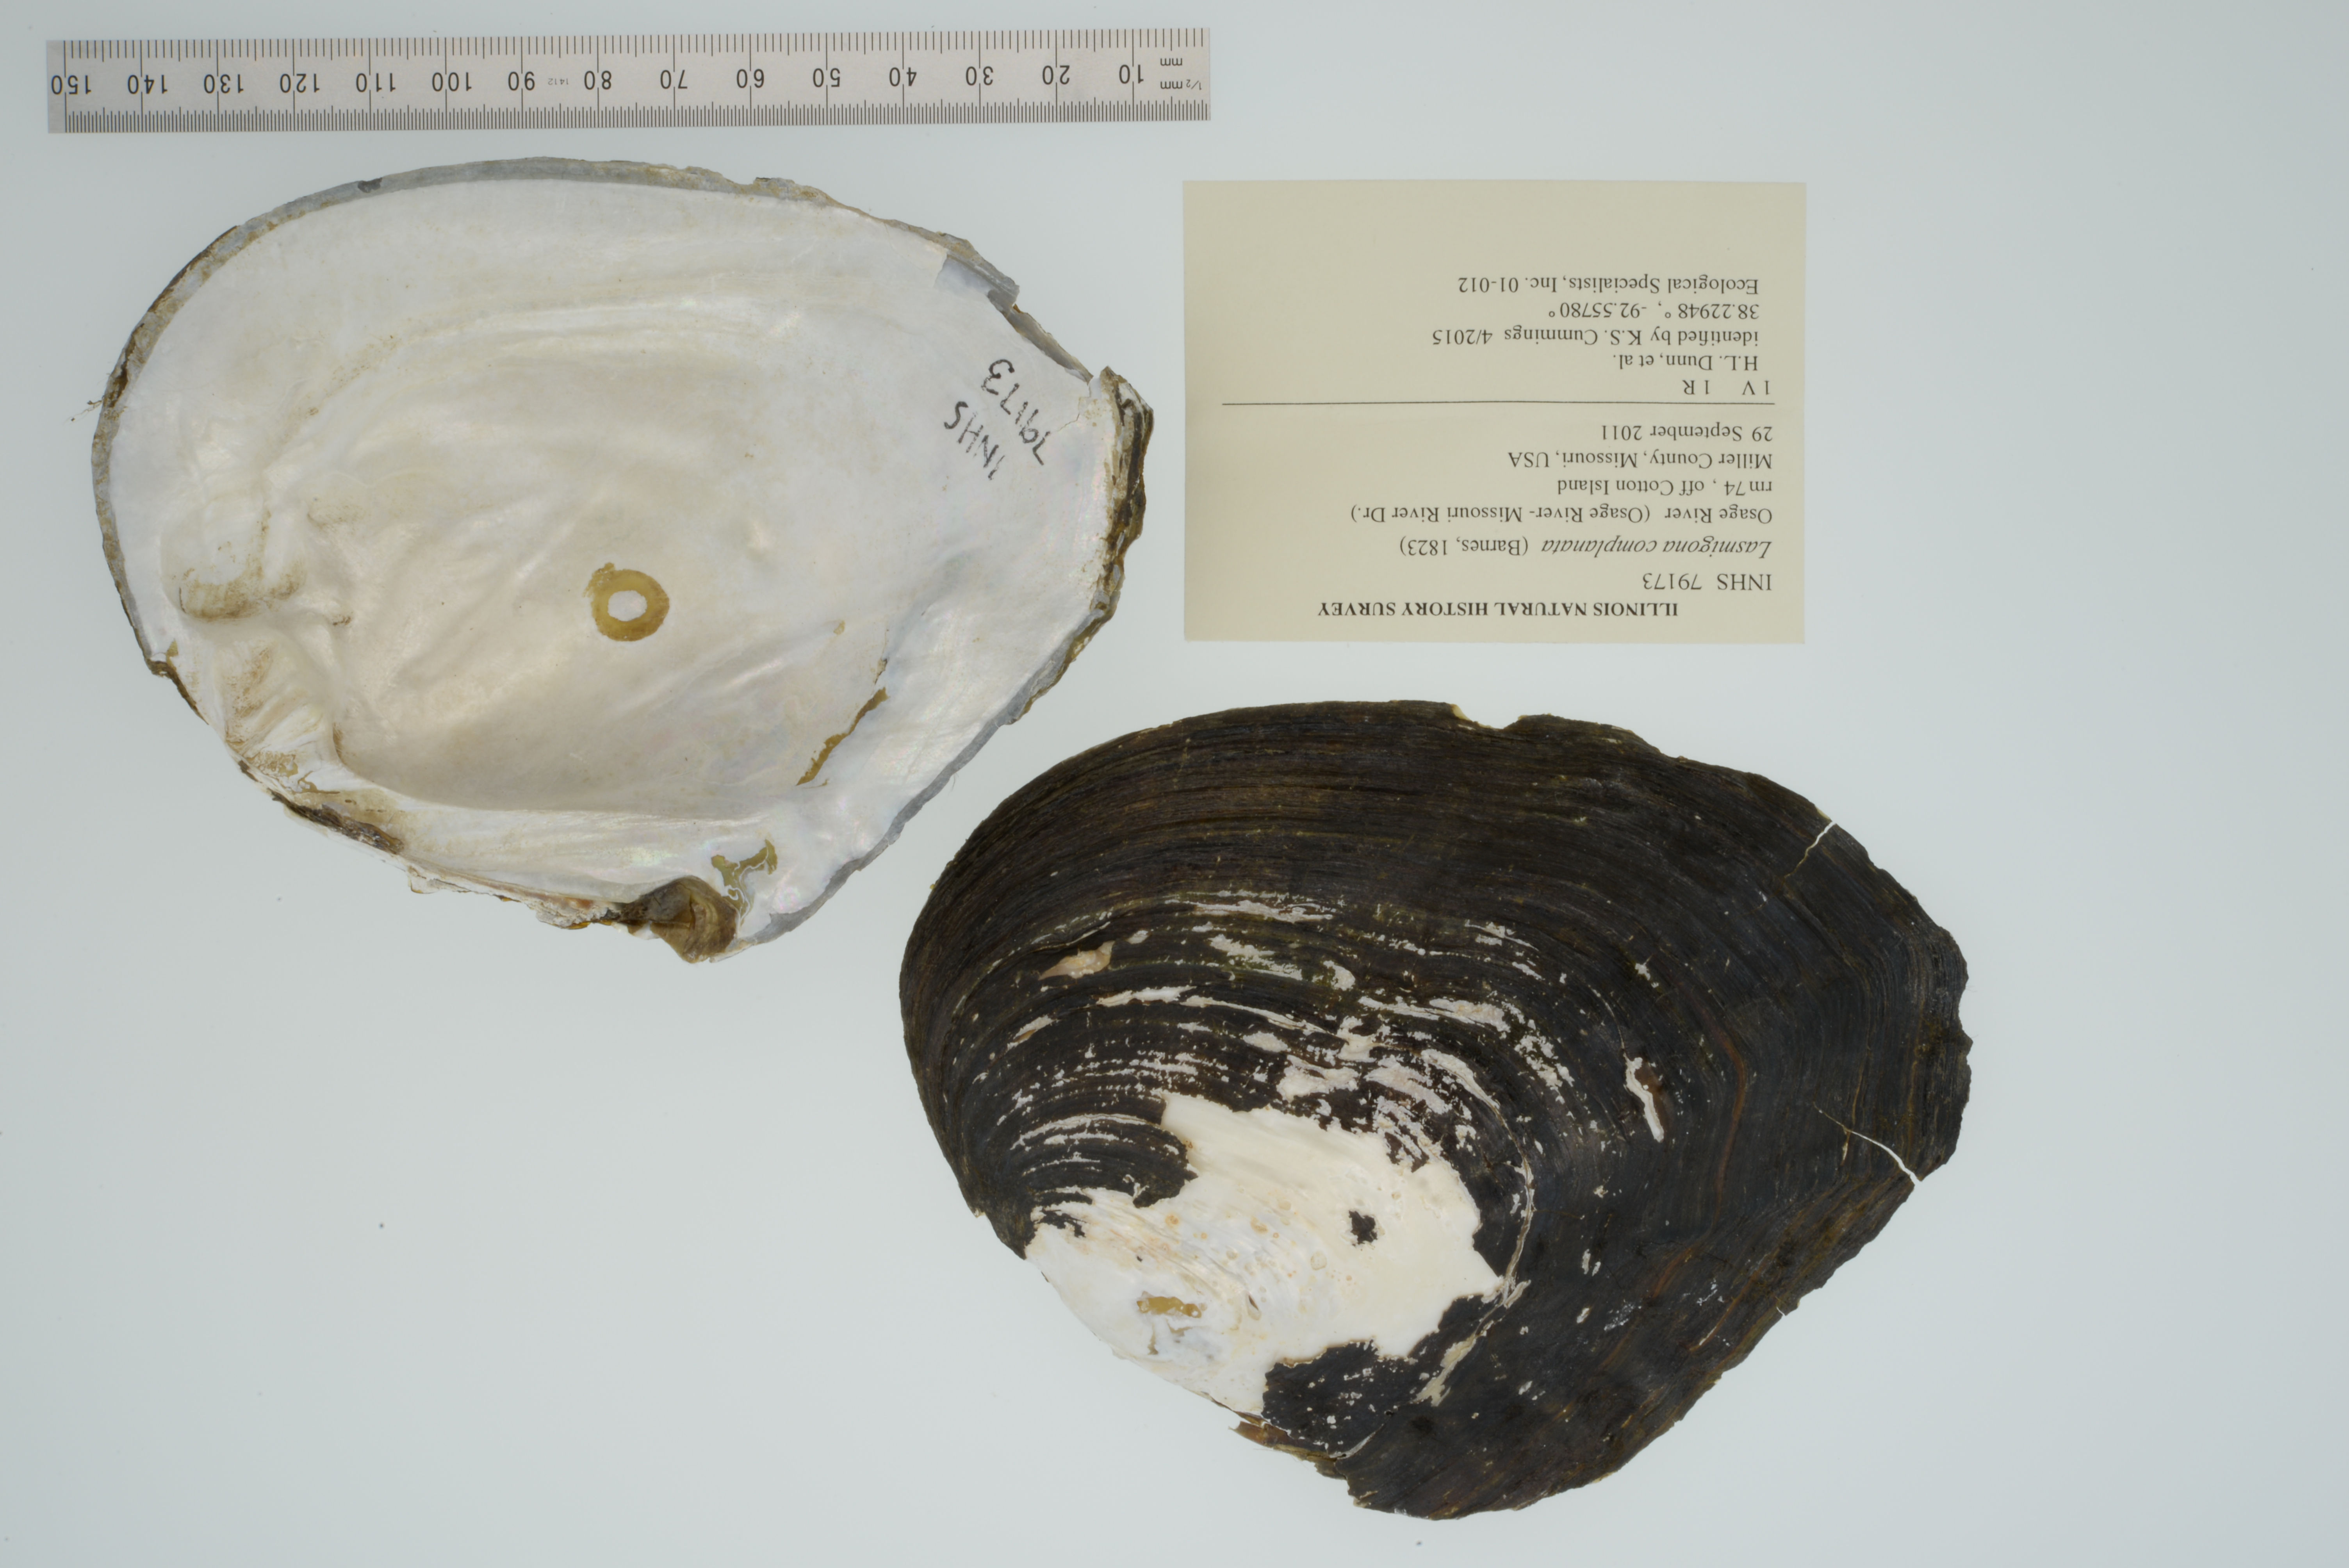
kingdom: Animalia
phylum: Mollusca
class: Bivalvia
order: Unionida
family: Unionidae
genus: Lasmigona
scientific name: Lasmigona complanata
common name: White heelsplitter
